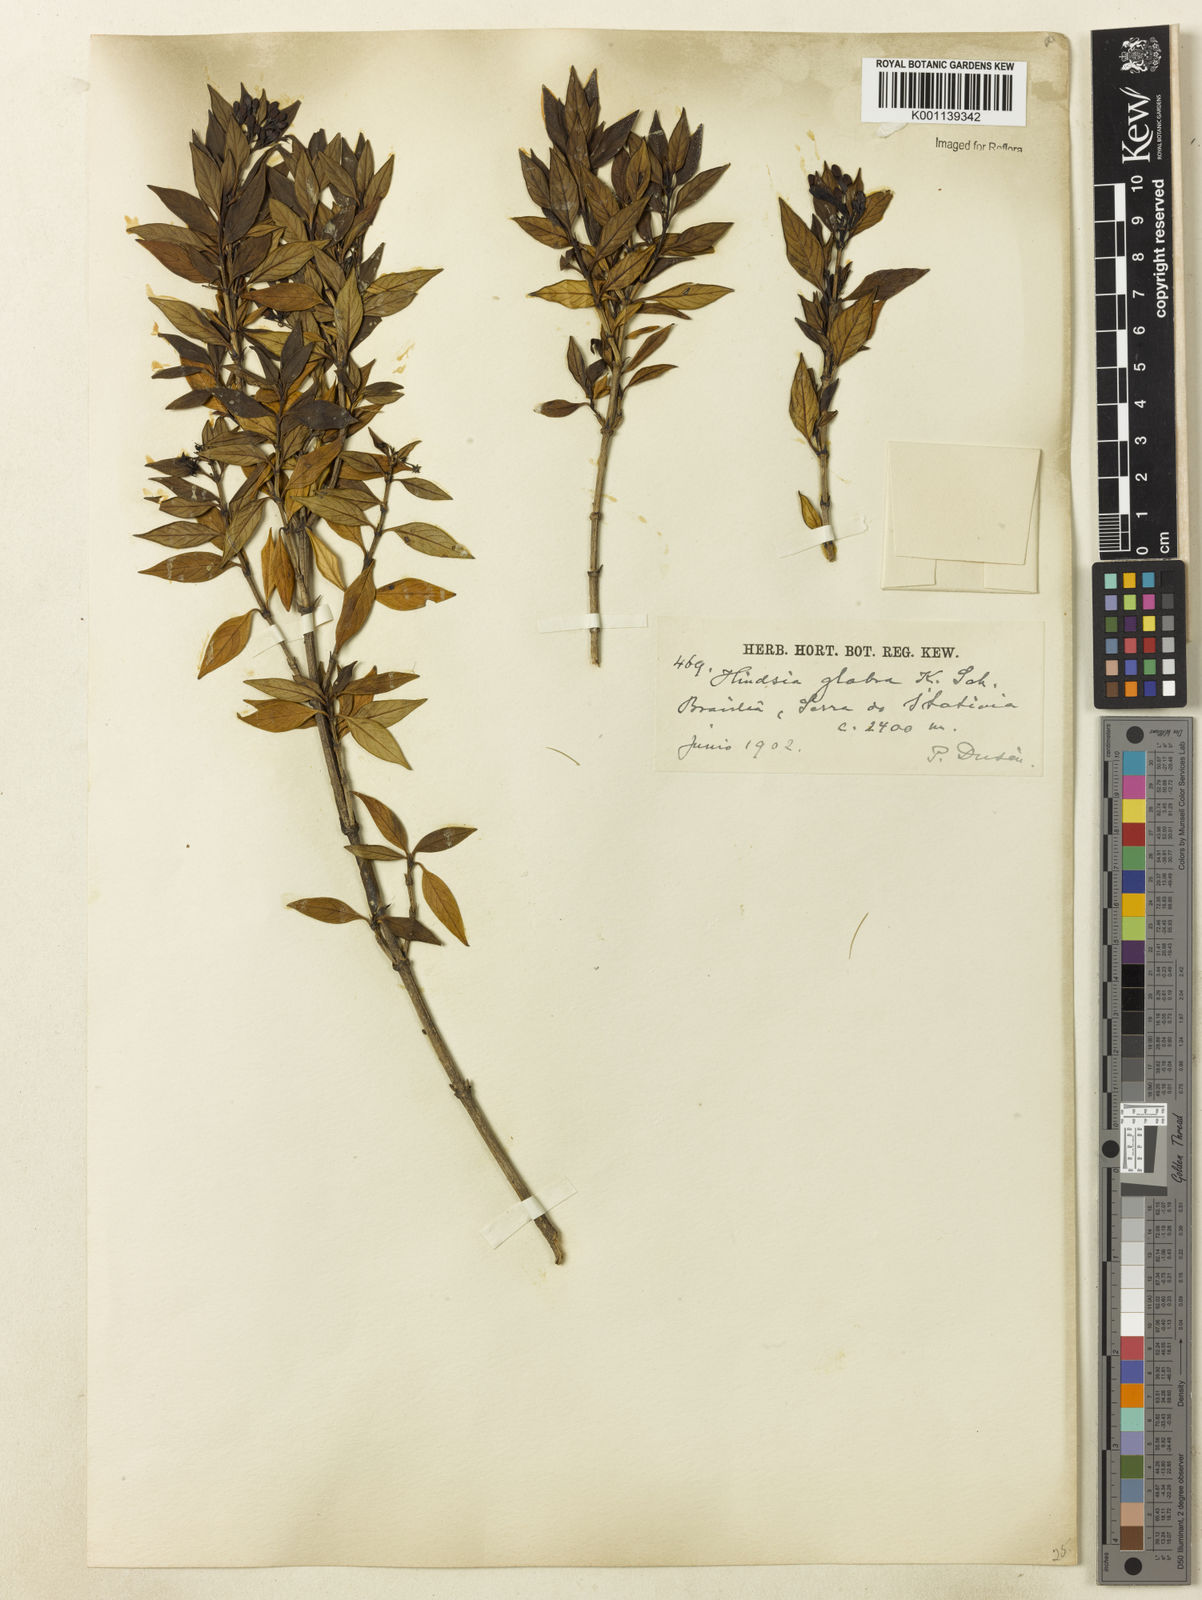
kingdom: Plantae
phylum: Tracheophyta
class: Magnoliopsida
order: Gentianales
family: Rubiaceae
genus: Hindsia
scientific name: Hindsia
